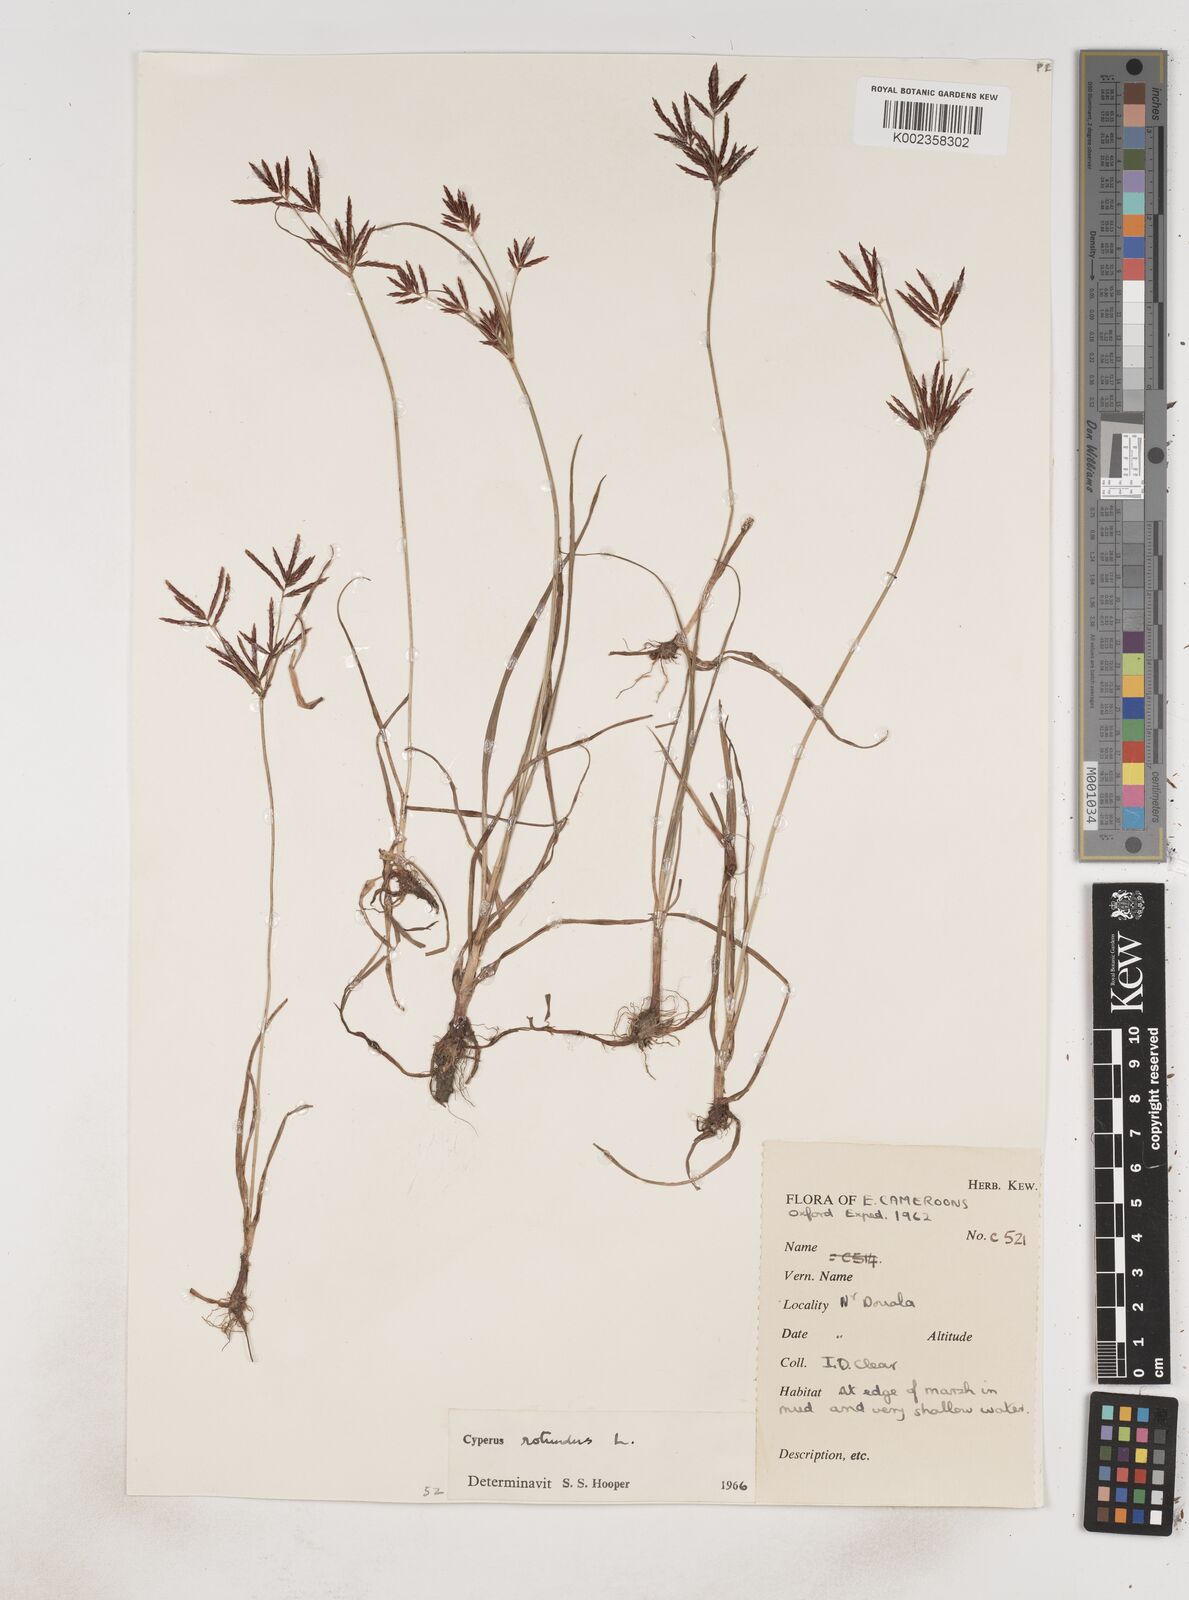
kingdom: Plantae
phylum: Tracheophyta
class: Liliopsida
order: Poales
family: Cyperaceae
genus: Cyperus
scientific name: Cyperus rotundus
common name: Nutgrass
